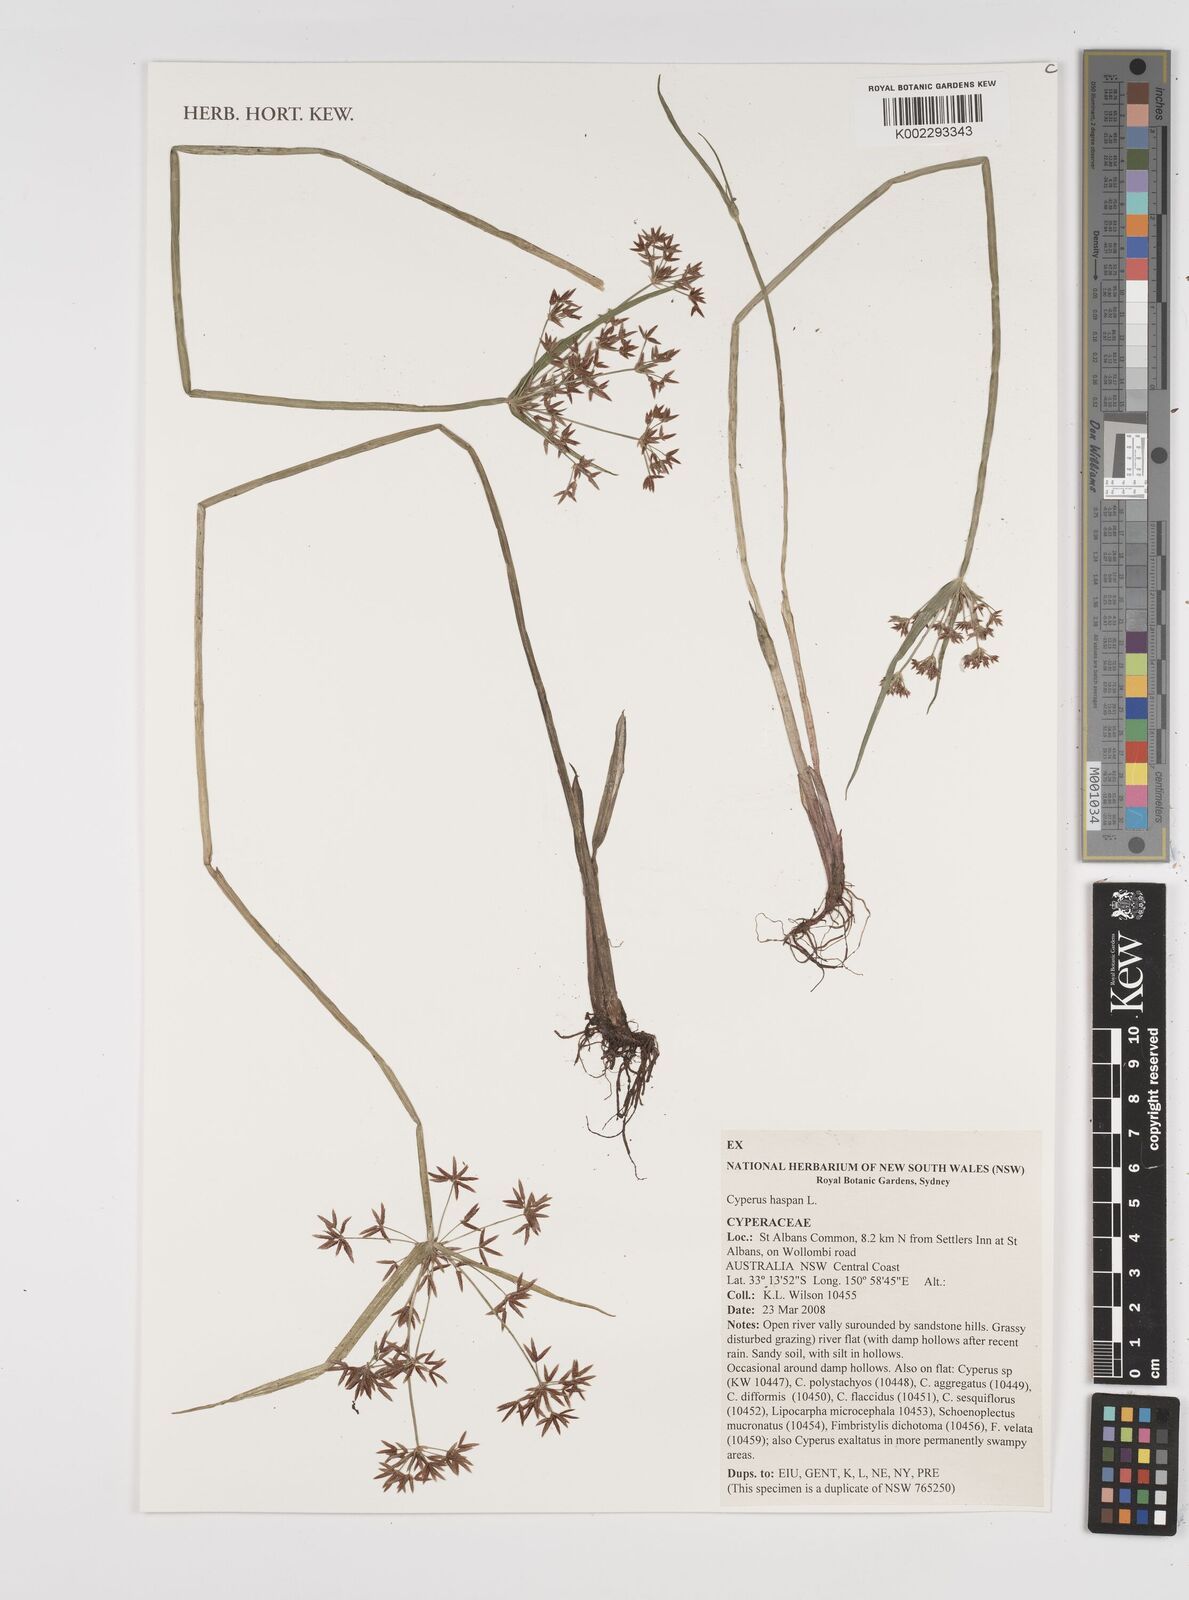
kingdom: Plantae
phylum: Tracheophyta
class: Liliopsida
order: Poales
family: Cyperaceae
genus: Cyperus
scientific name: Cyperus haspan
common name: Haspan flatsedge
